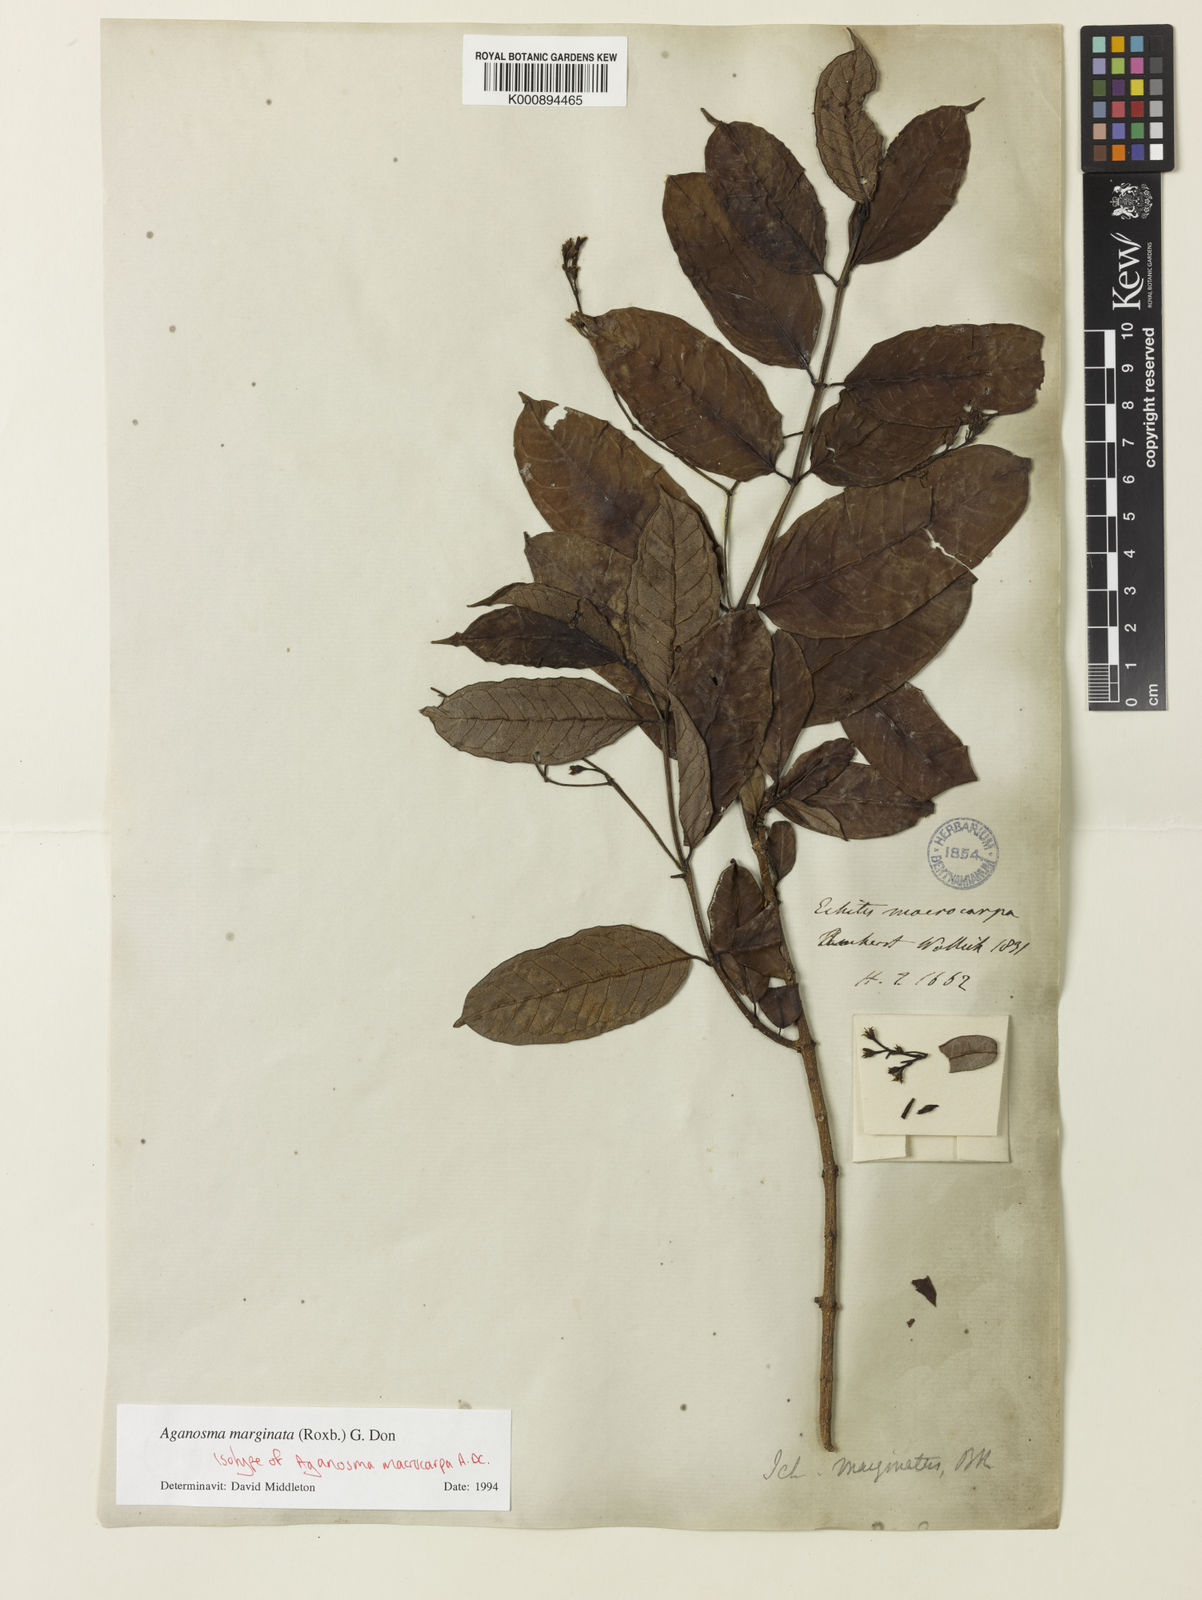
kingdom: Plantae
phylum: Tracheophyta
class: Magnoliopsida
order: Gentianales
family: Apocynaceae
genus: Amphineurion
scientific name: Amphineurion marginatum
